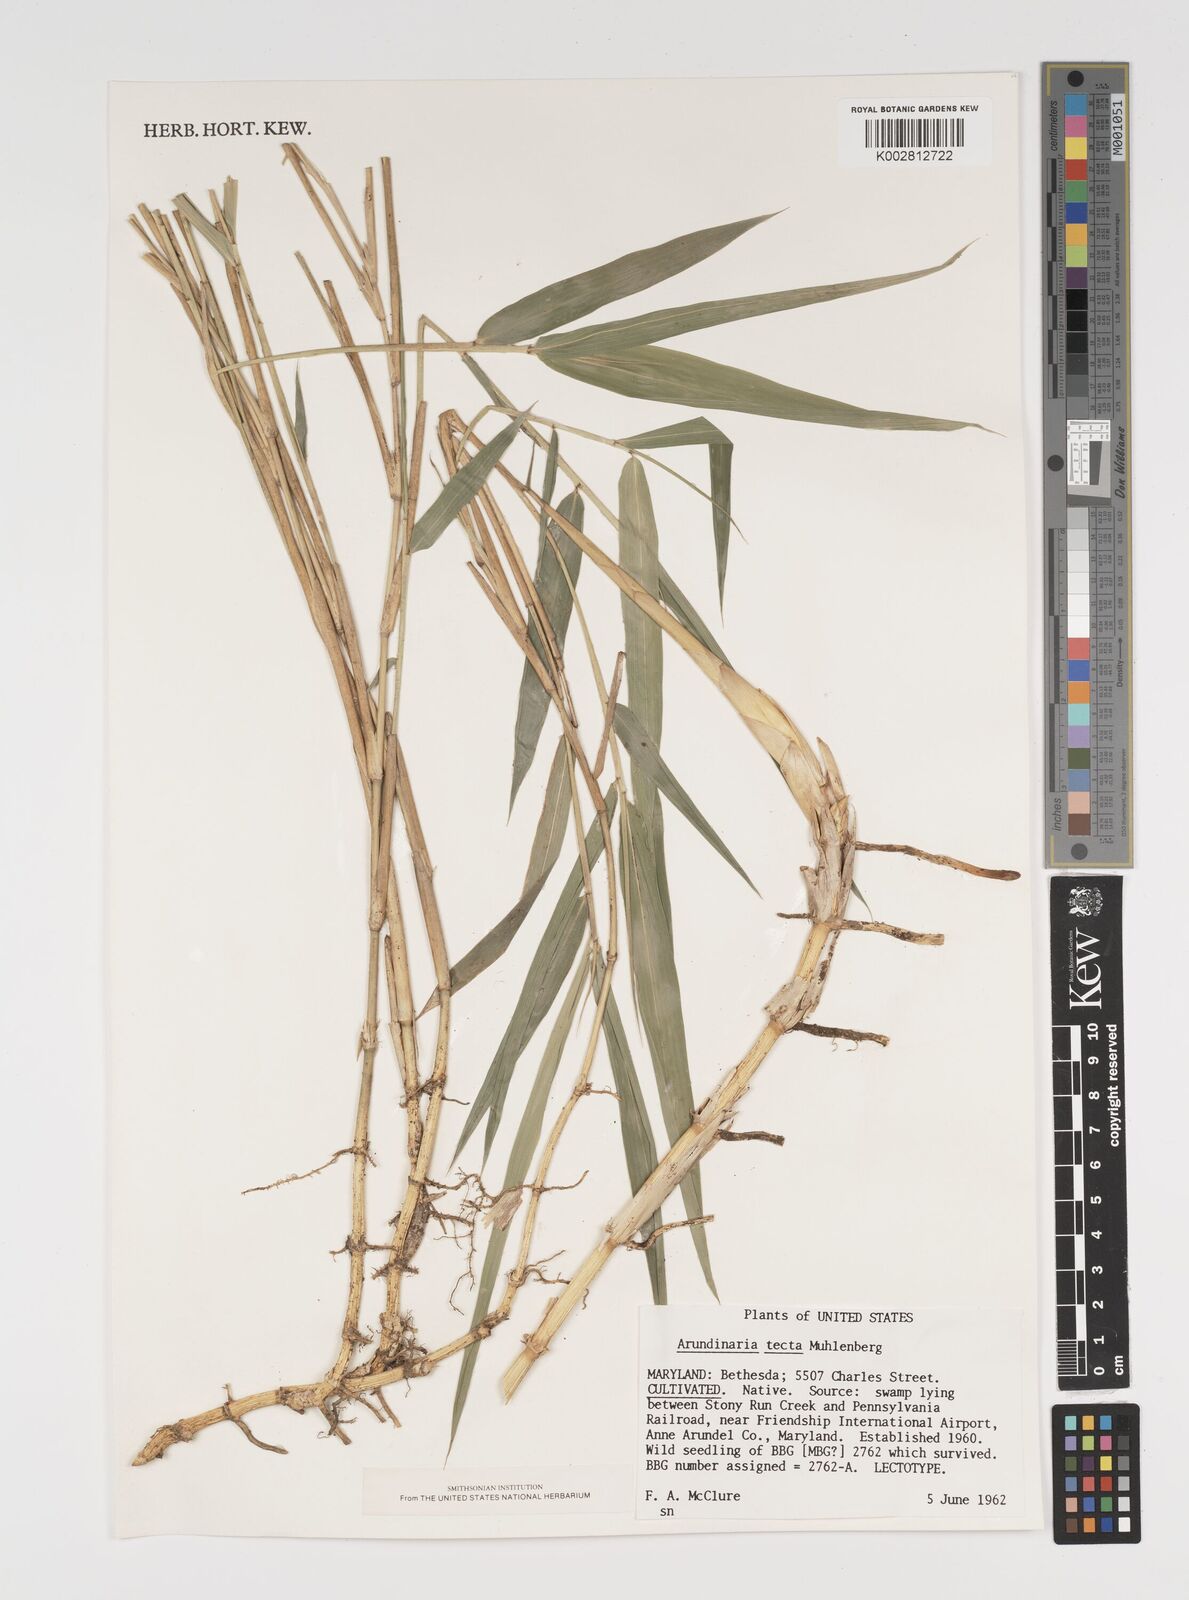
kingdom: Plantae
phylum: Tracheophyta
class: Liliopsida
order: Poales
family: Poaceae
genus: Arundinaria
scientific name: Arundinaria tecta
